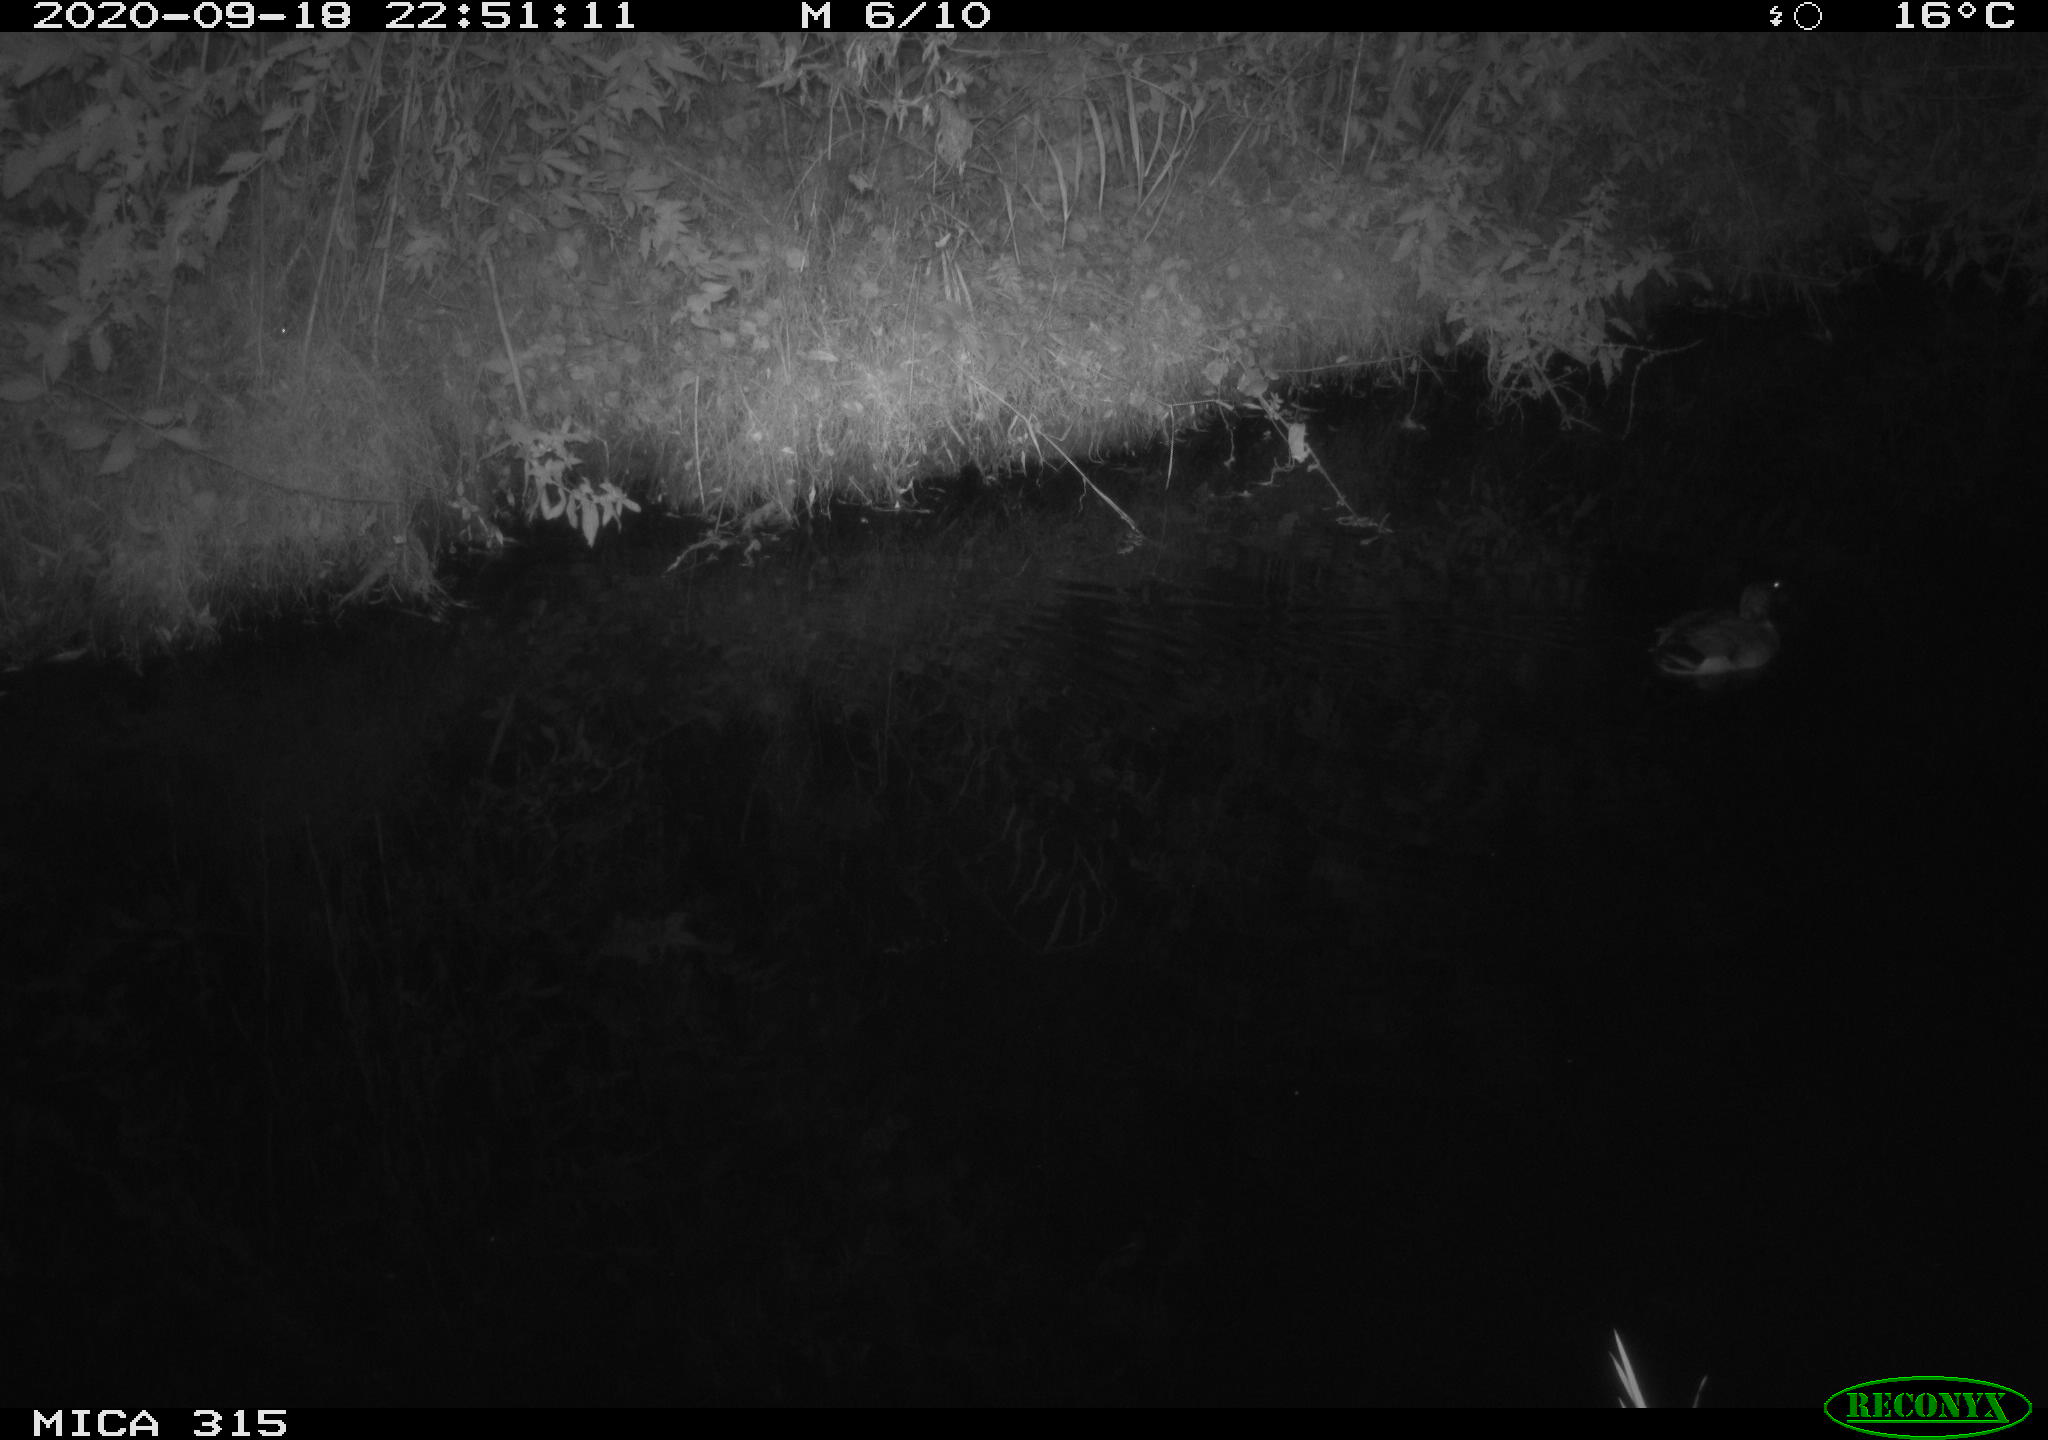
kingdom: Animalia
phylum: Chordata
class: Aves
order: Anseriformes
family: Anatidae
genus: Anas
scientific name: Anas platyrhynchos
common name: Mallard
